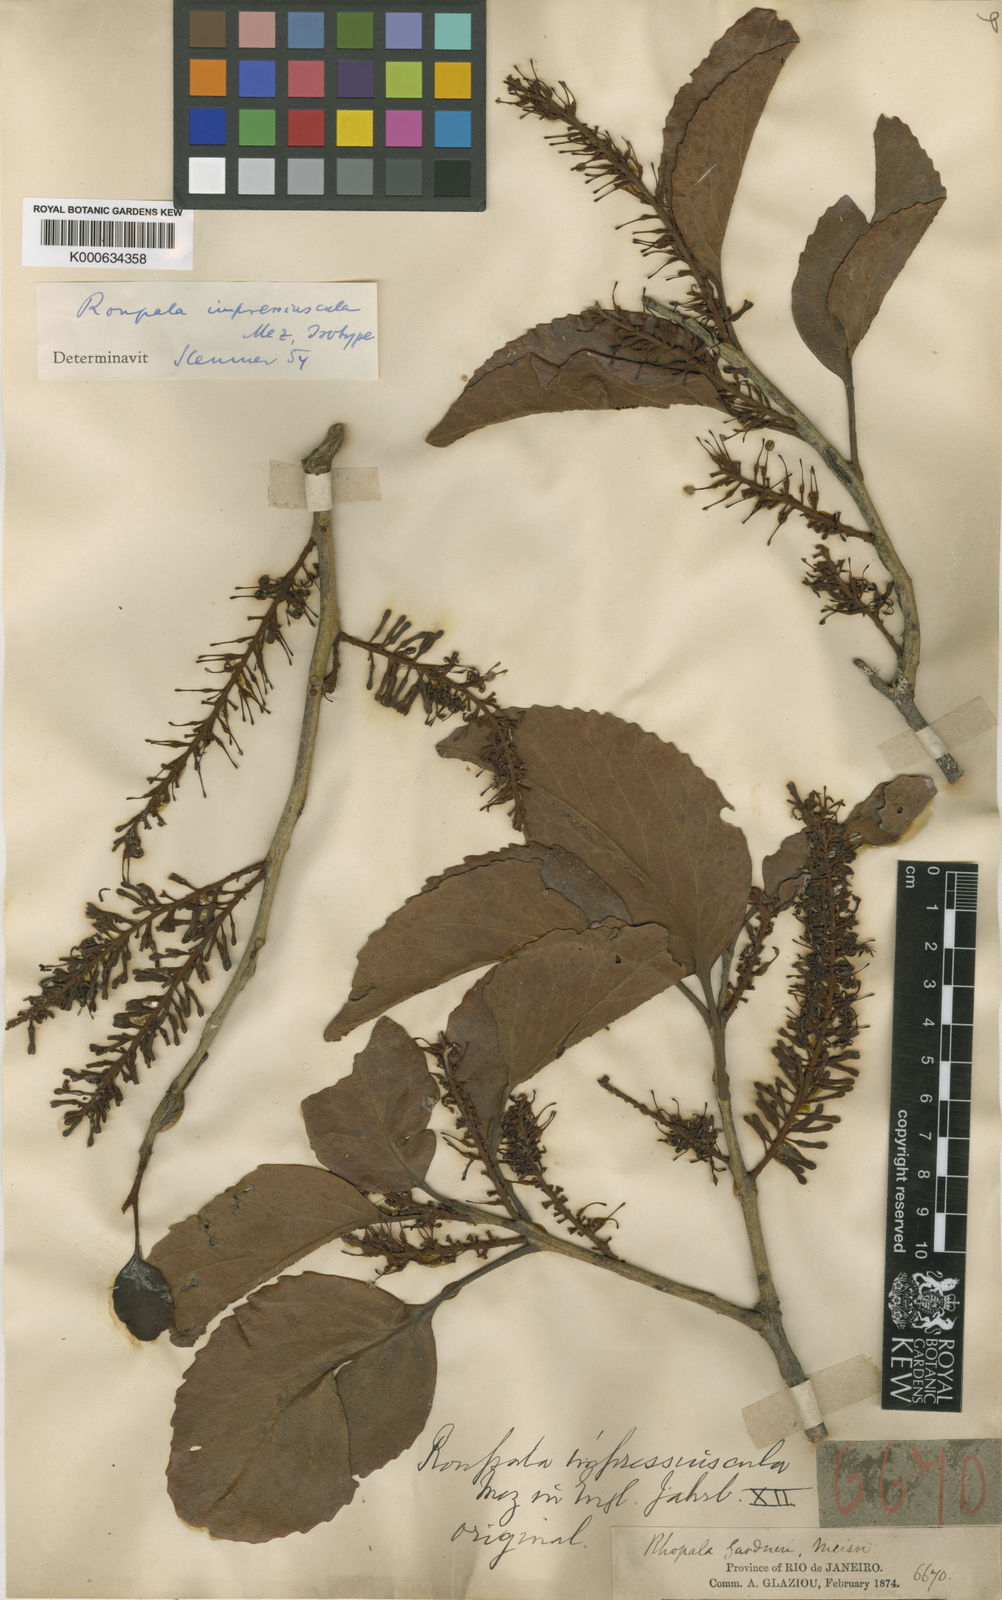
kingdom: Plantae
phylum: Tracheophyta
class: Magnoliopsida
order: Proteales
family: Proteaceae
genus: Roupala
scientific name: Roupala montana
